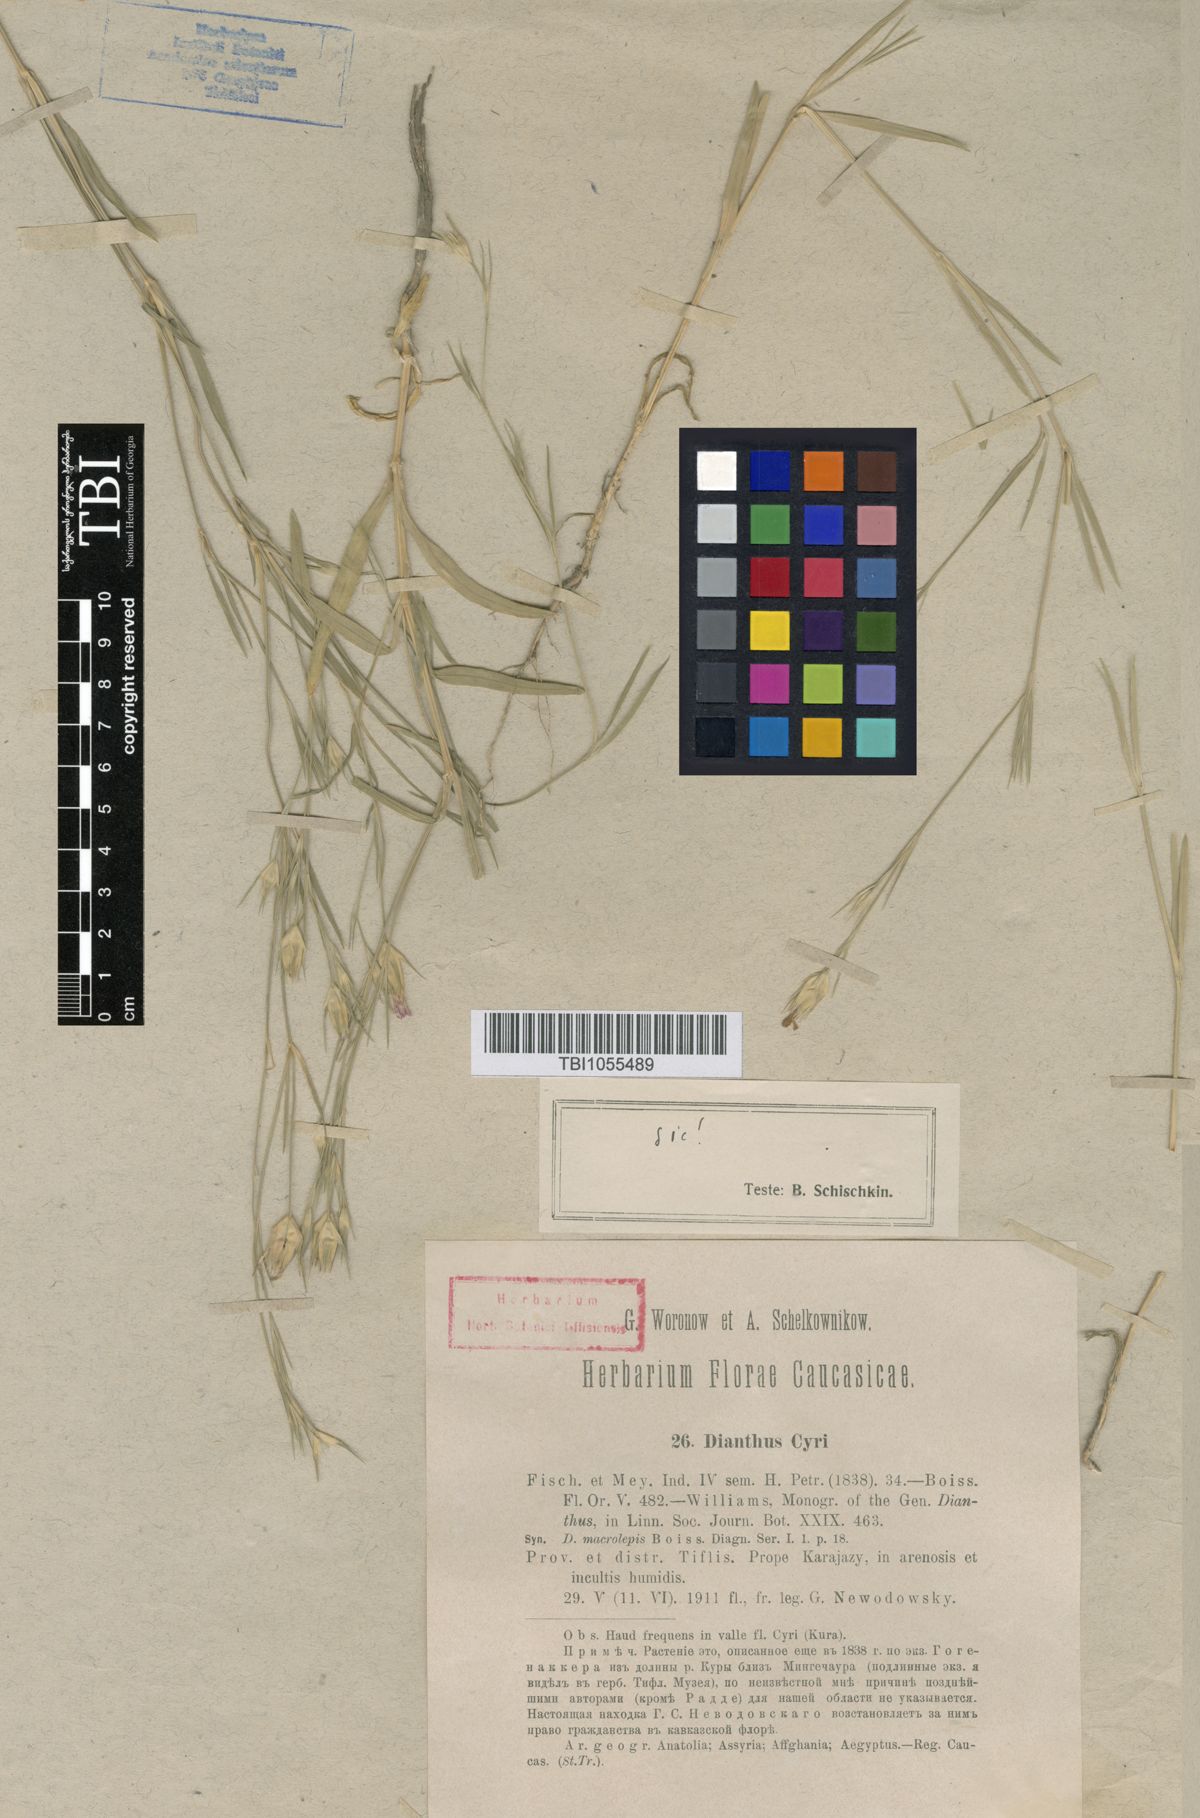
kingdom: Plantae
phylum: Tracheophyta
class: Magnoliopsida
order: Caryophyllales
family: Caryophyllaceae
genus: Dianthus
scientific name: Dianthus cyri
